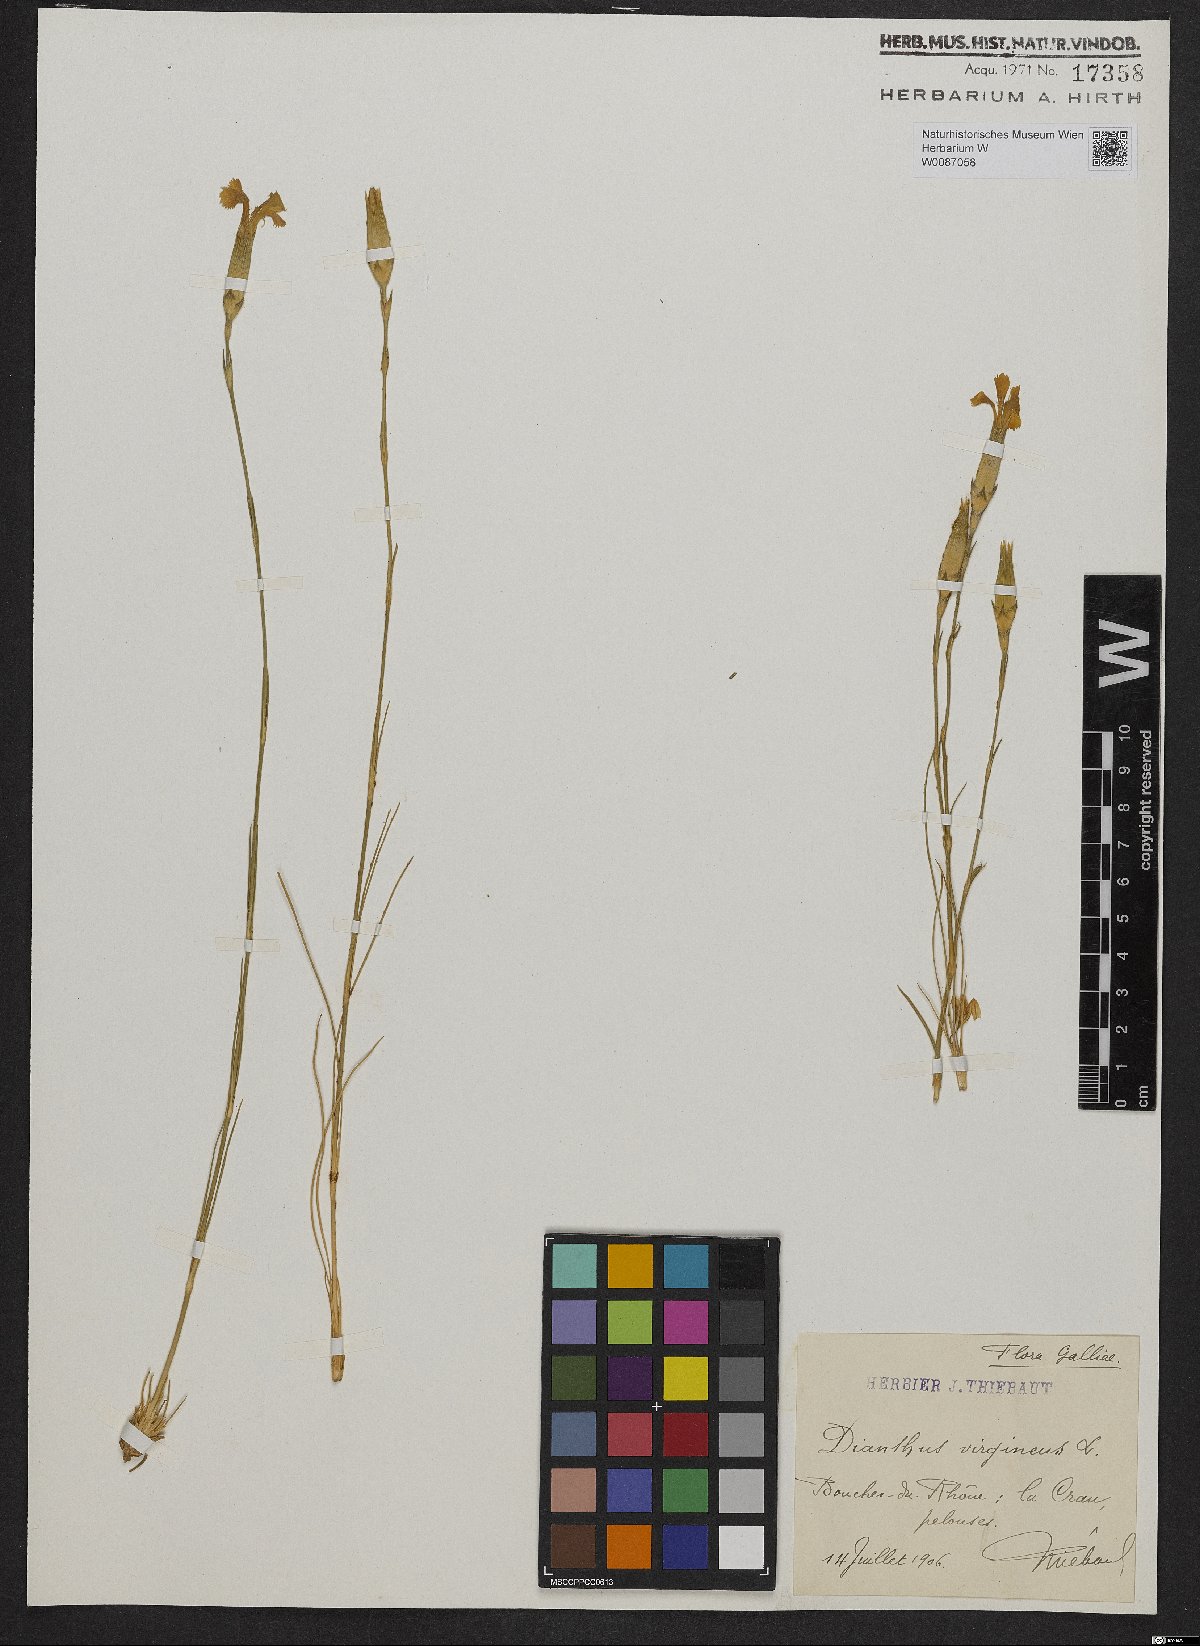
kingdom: Plantae
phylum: Tracheophyta
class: Magnoliopsida
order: Caryophyllales
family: Caryophyllaceae
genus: Dianthus
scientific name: Dianthus virgineus
